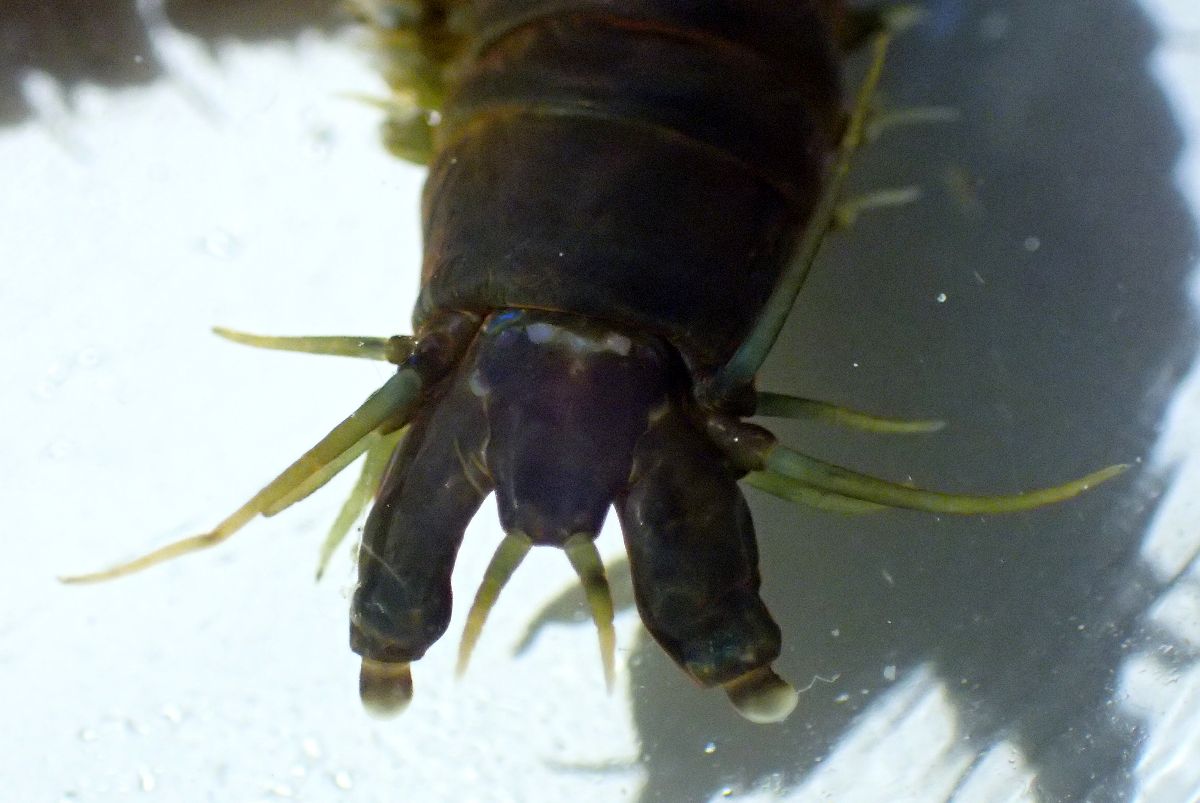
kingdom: Animalia
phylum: Annelida
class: Polychaeta
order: Phyllodocida
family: Nereididae
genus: Nereis
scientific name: Nereis pelagica
